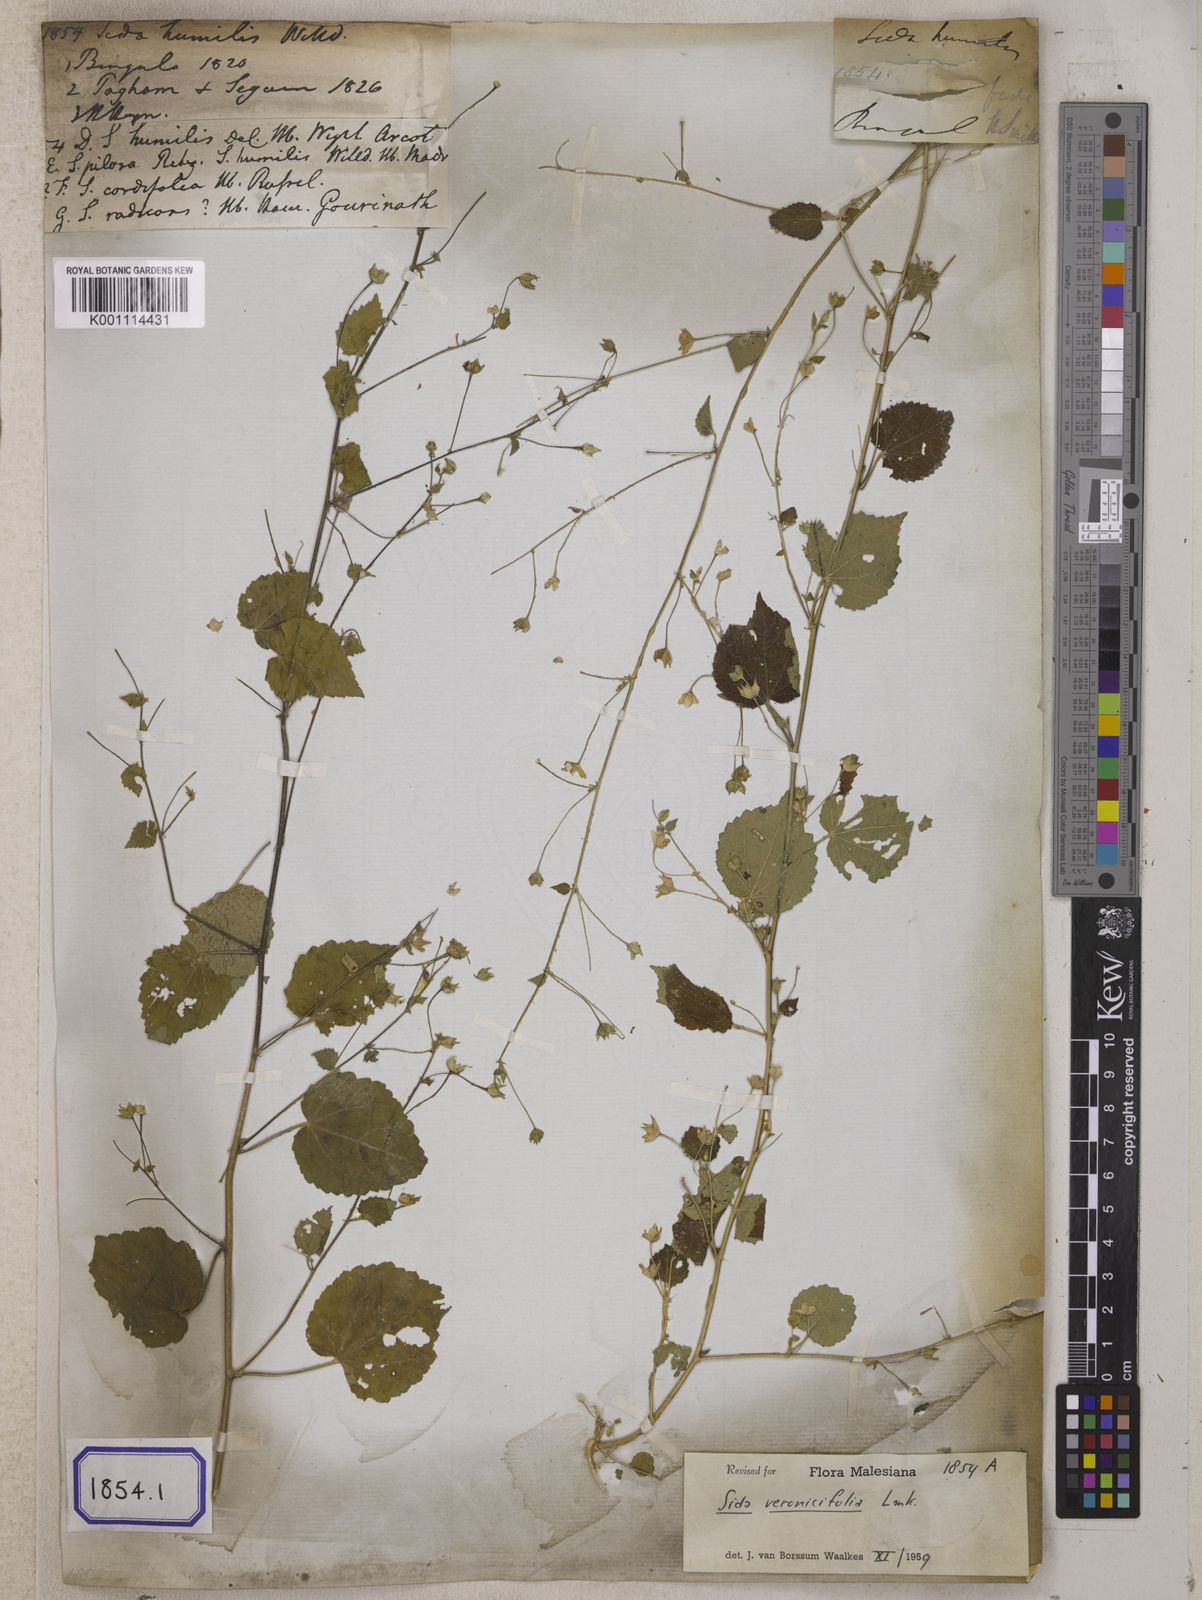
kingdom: Plantae
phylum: Tracheophyta
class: Magnoliopsida
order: Malvales
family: Malvaceae
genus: Sida
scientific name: Sida cordata
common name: Long-stalk sida
